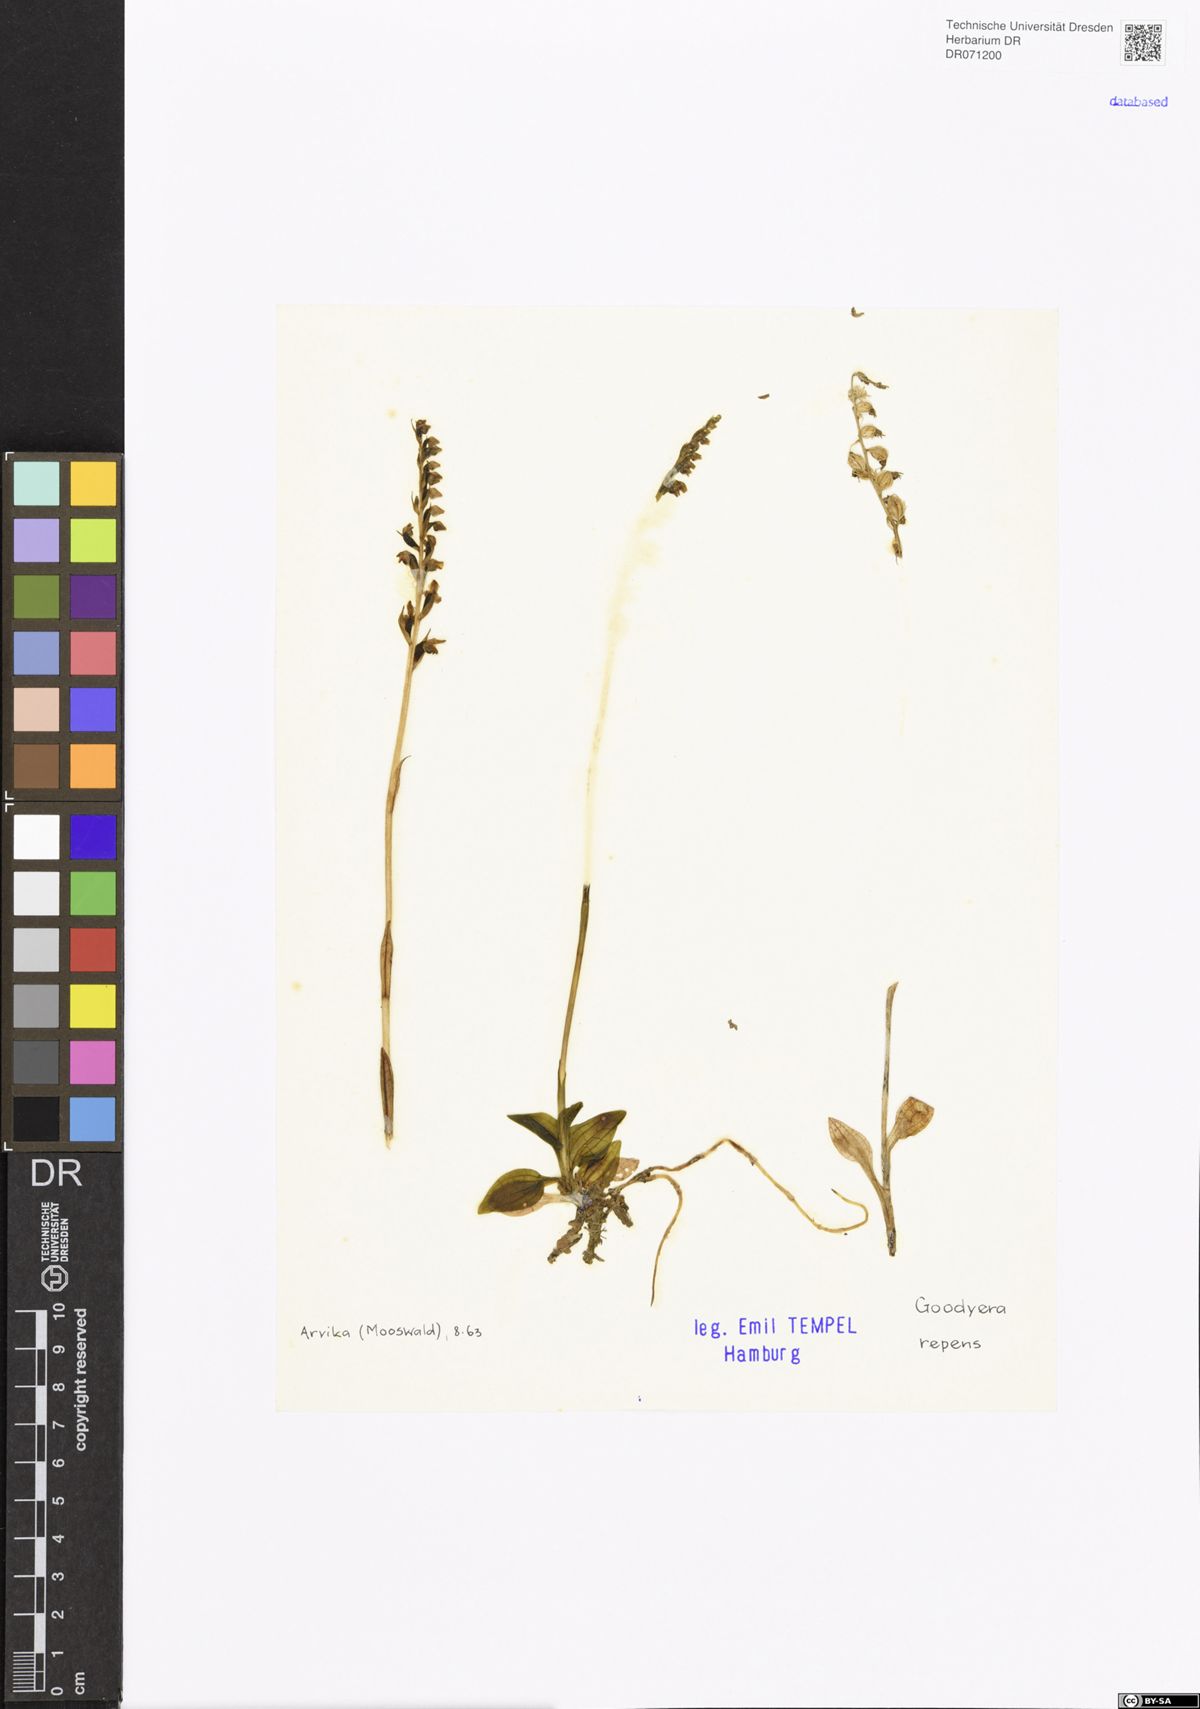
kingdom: Plantae
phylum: Tracheophyta
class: Liliopsida
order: Asparagales
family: Orchidaceae
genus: Goodyera
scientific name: Goodyera repens
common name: Creeping lady's-tresses
